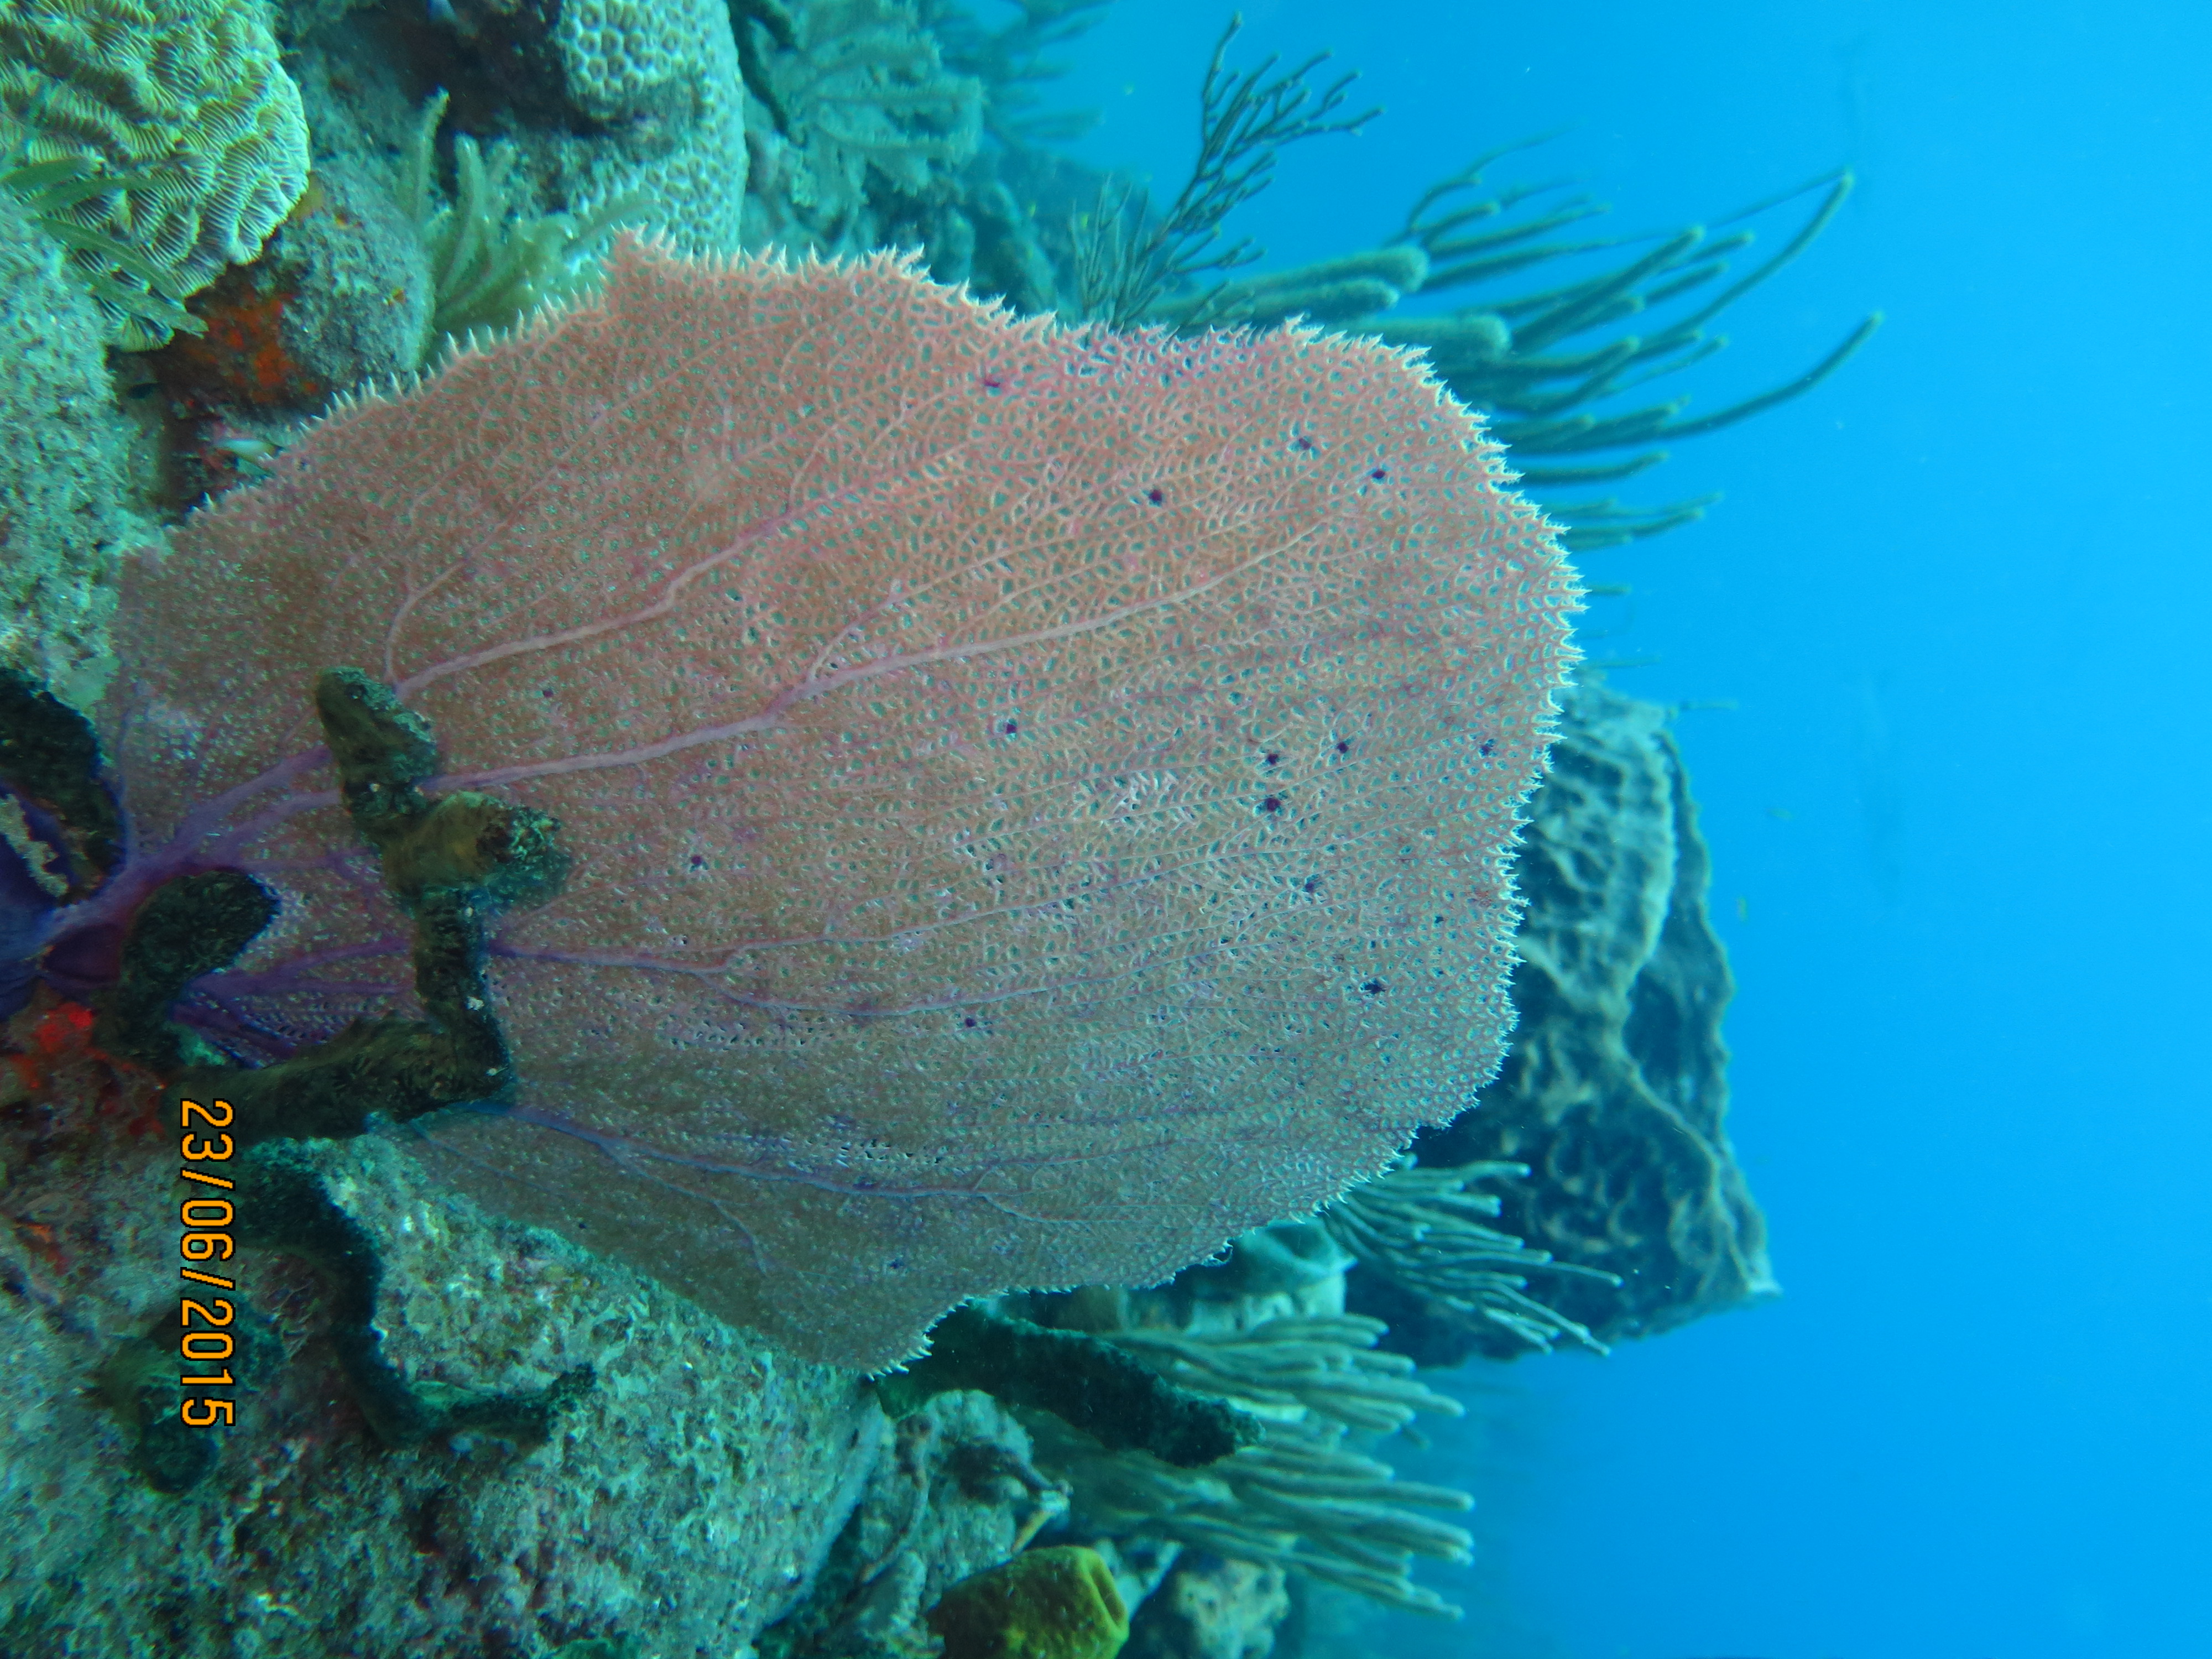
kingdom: Animalia
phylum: Cnidaria
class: Anthozoa
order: Malacalcyonacea
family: Gorgoniidae
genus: Gorgonia
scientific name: Gorgonia ventalina
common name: Common sea fan
